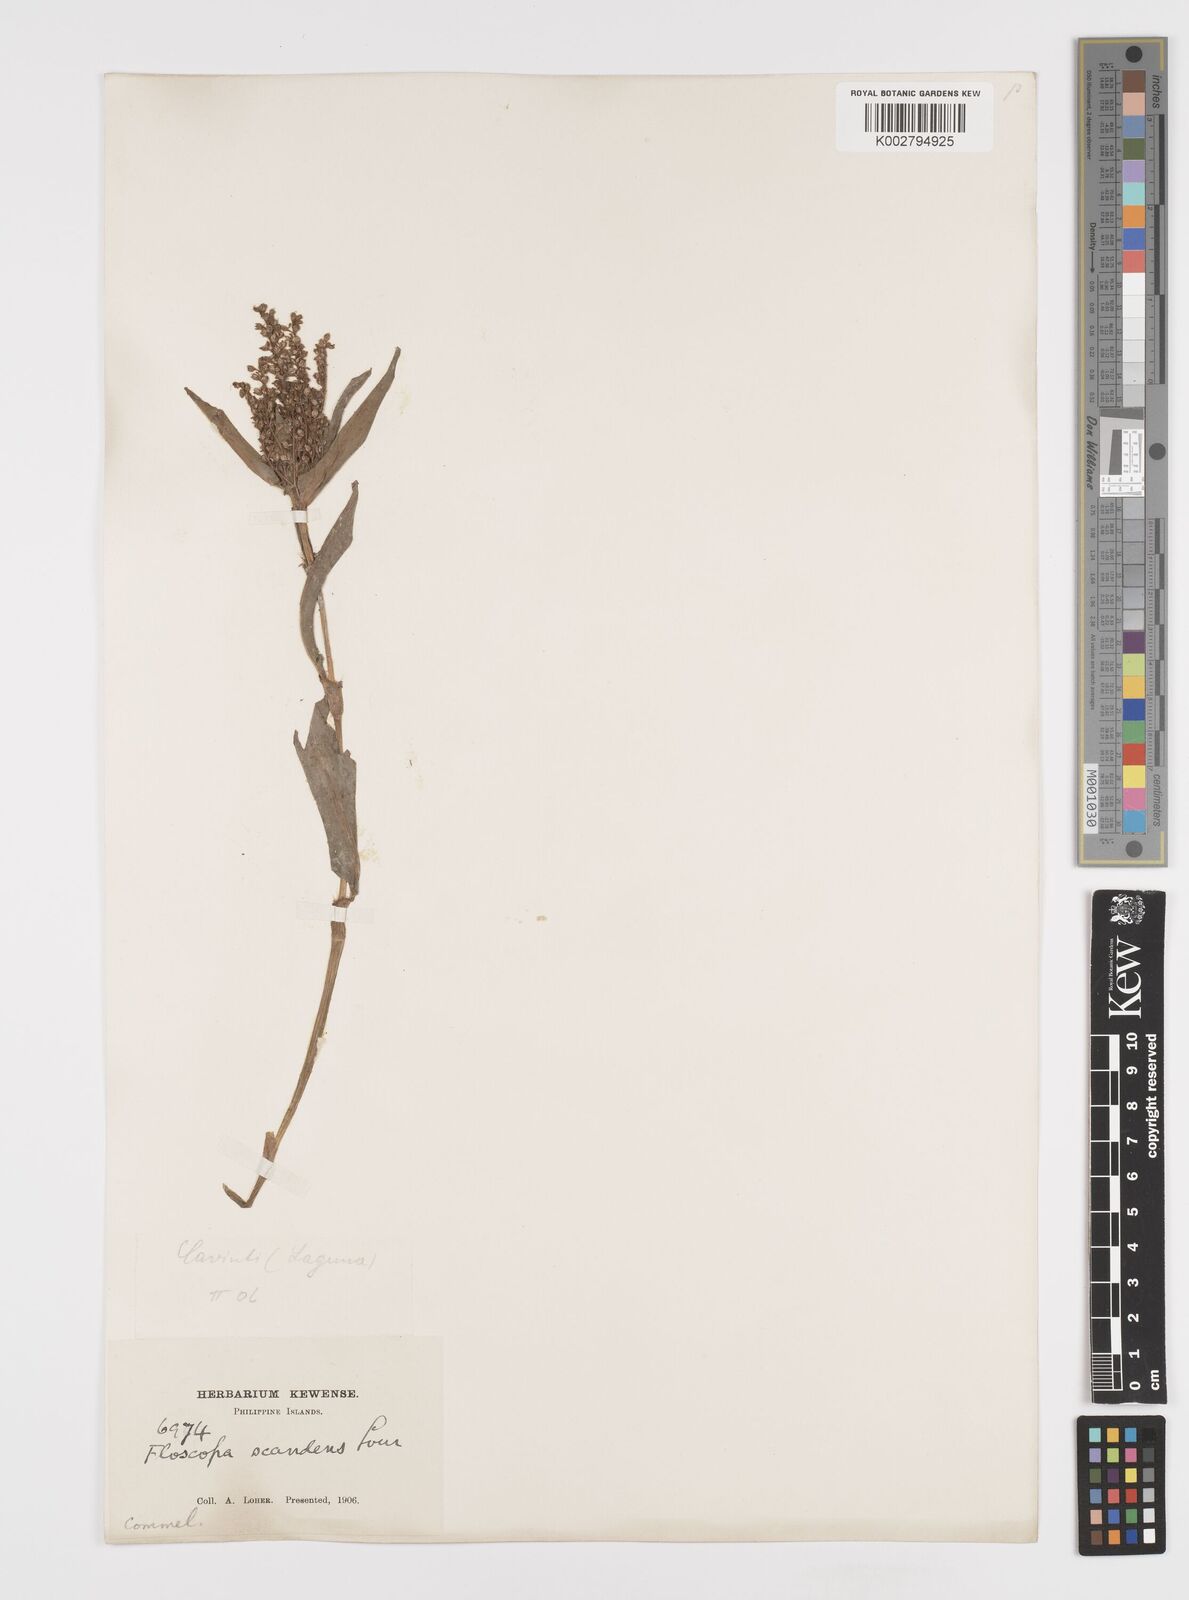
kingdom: Plantae
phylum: Tracheophyta
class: Liliopsida
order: Commelinales
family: Commelinaceae
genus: Floscopa
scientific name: Floscopa scandens
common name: Climbing flower cup
